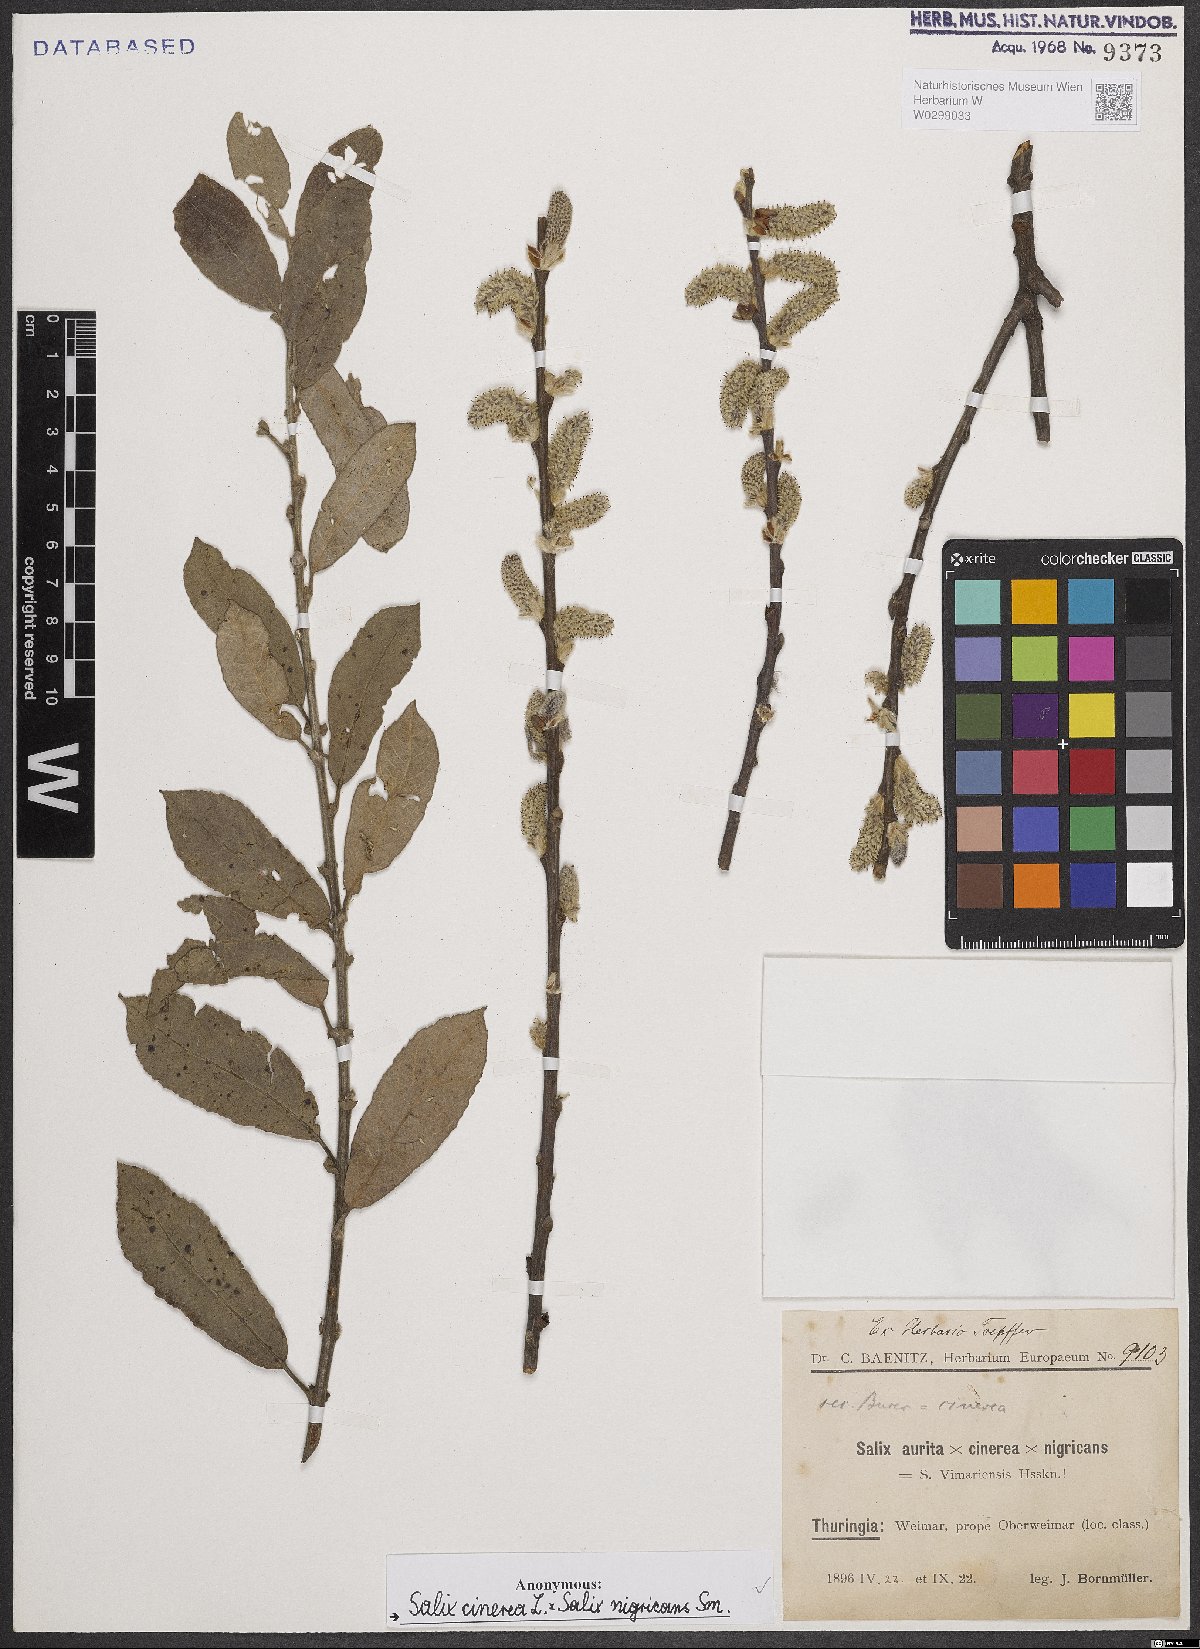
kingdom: Plantae
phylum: Tracheophyta
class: Magnoliopsida
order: Malpighiales
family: Salicaceae
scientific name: Salicaceae
